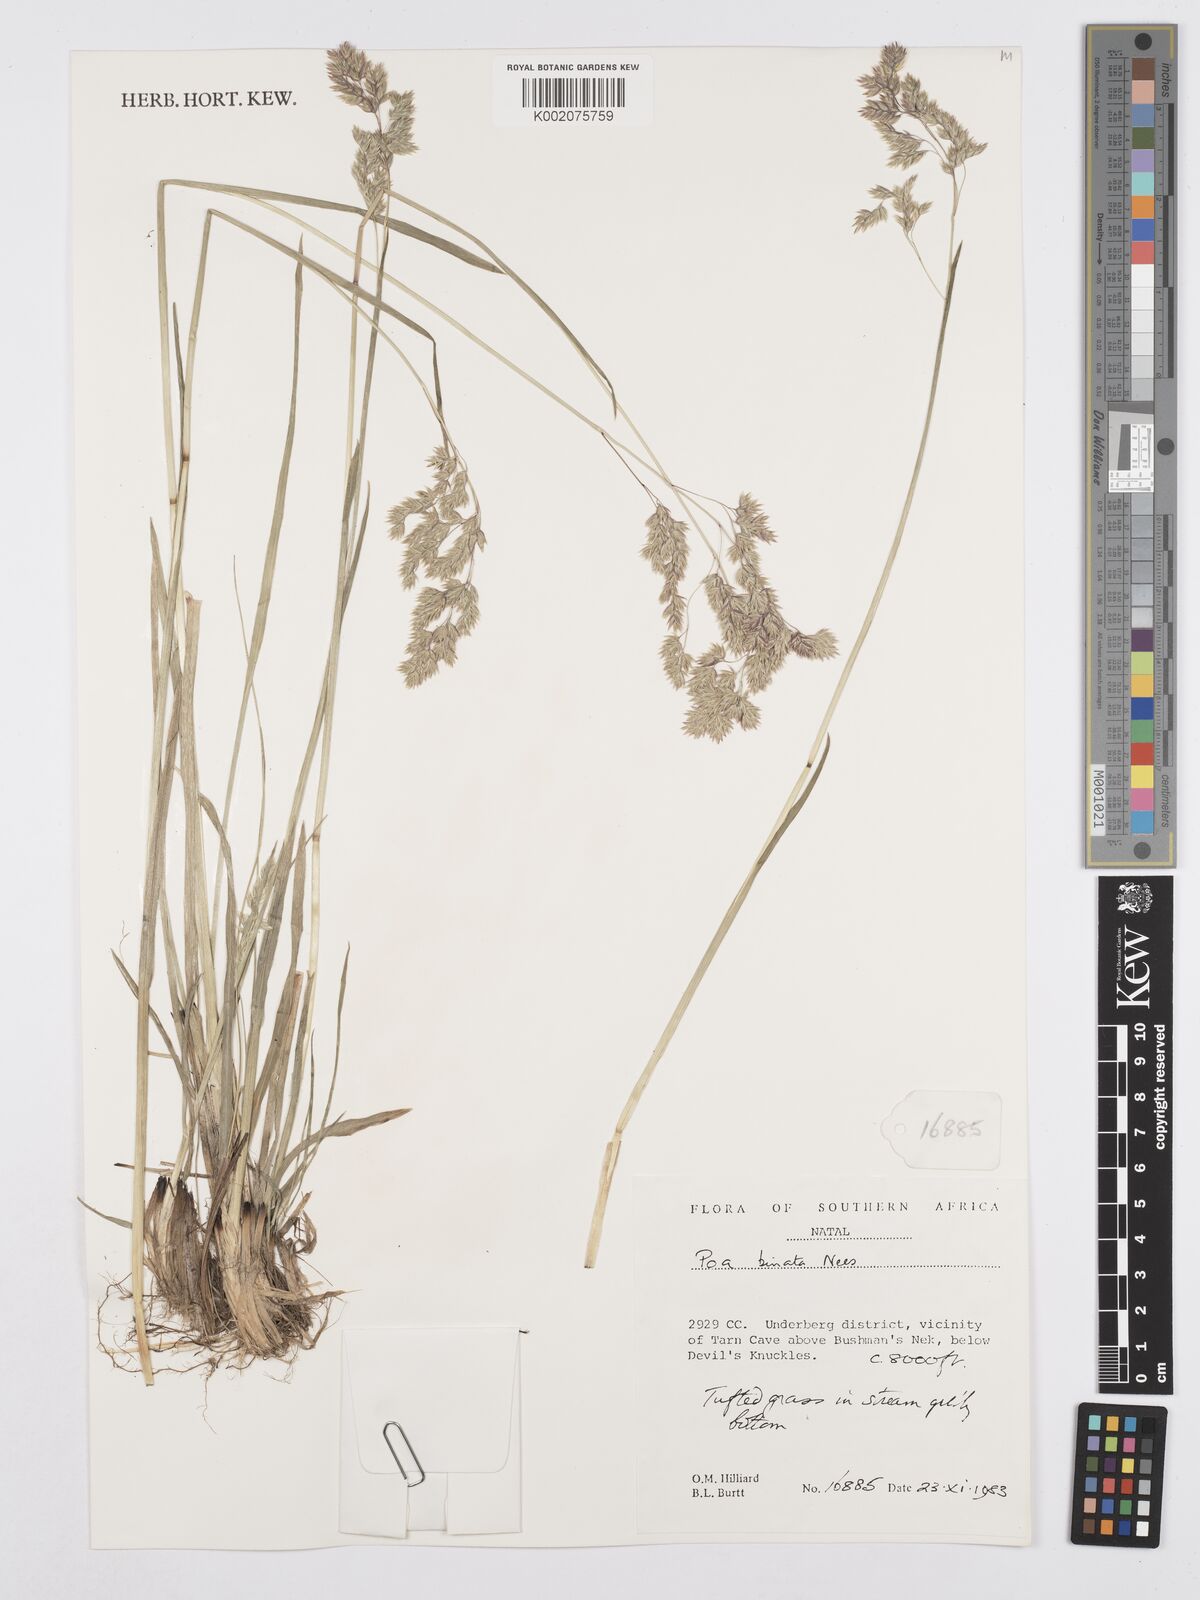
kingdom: Plantae
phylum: Tracheophyta
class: Liliopsida
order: Poales
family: Poaceae
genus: Poa
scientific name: Poa binata
